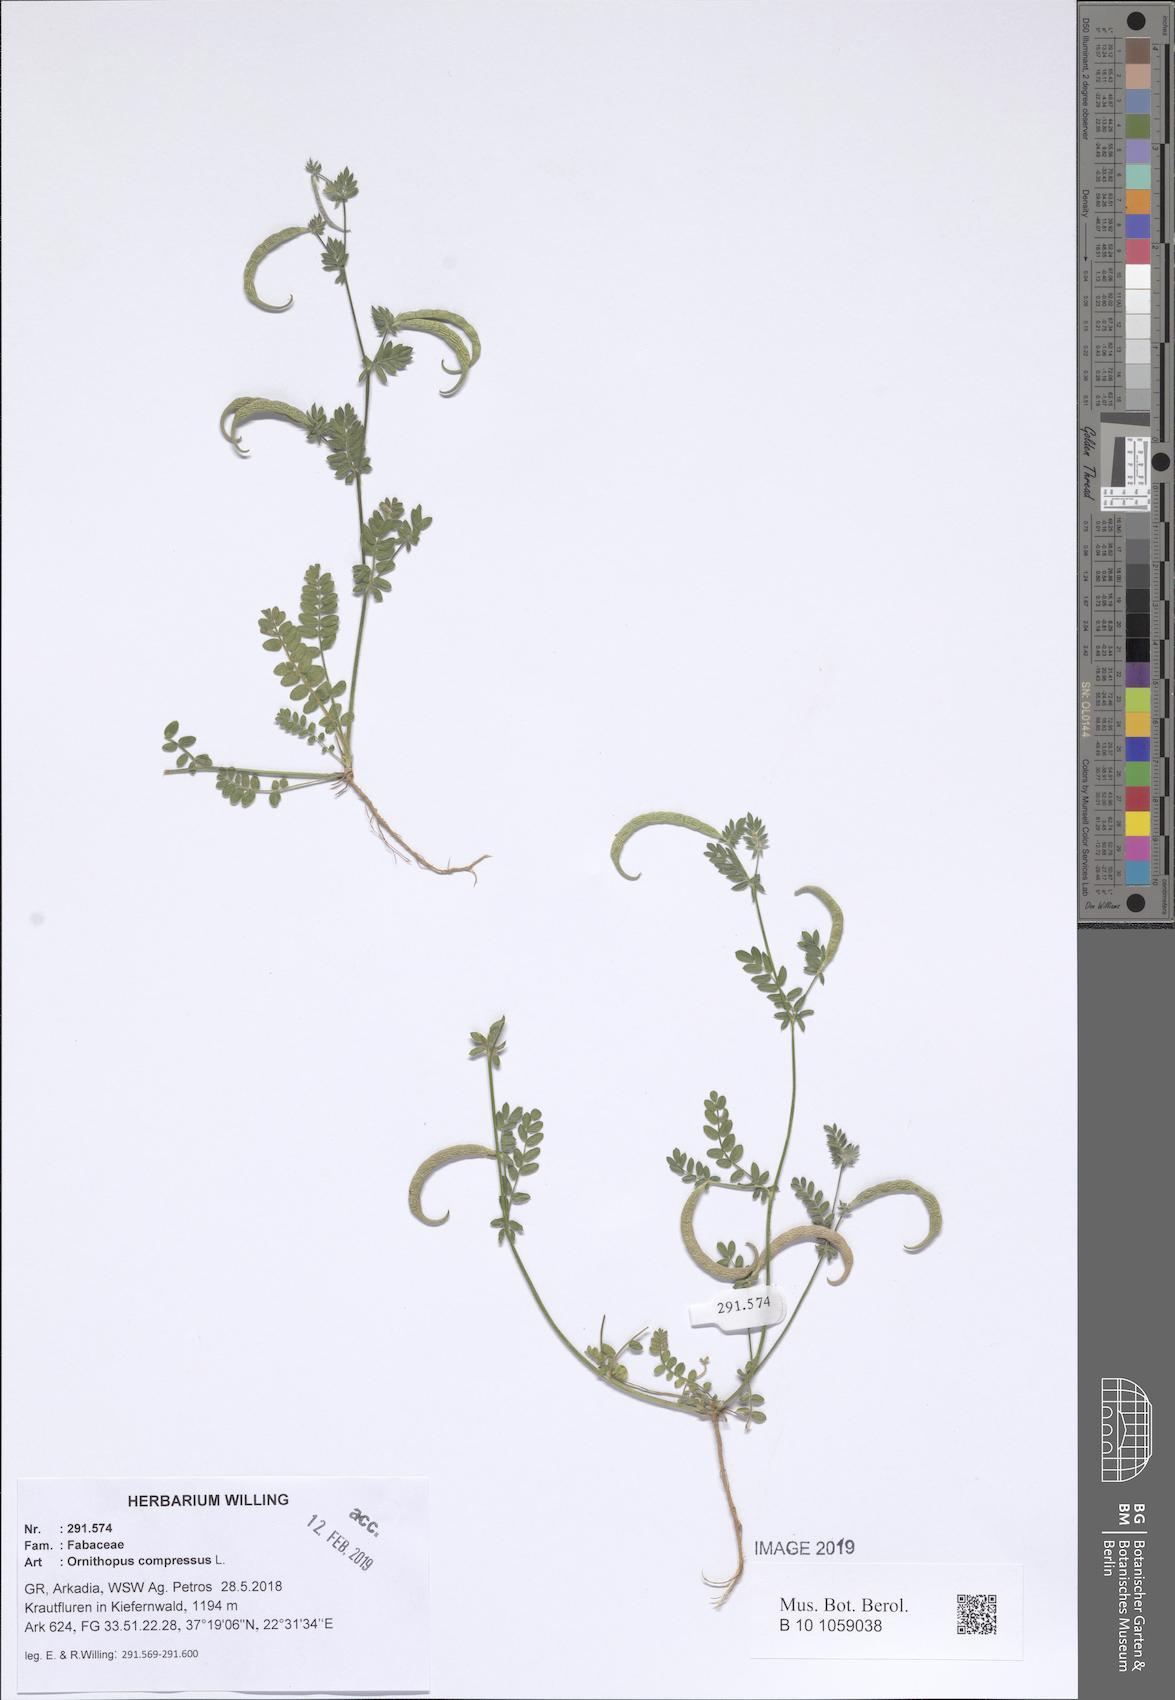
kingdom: Plantae
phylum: Tracheophyta
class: Magnoliopsida
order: Fabales
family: Fabaceae
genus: Ornithopus
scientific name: Ornithopus compressus
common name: Yellow serradella
